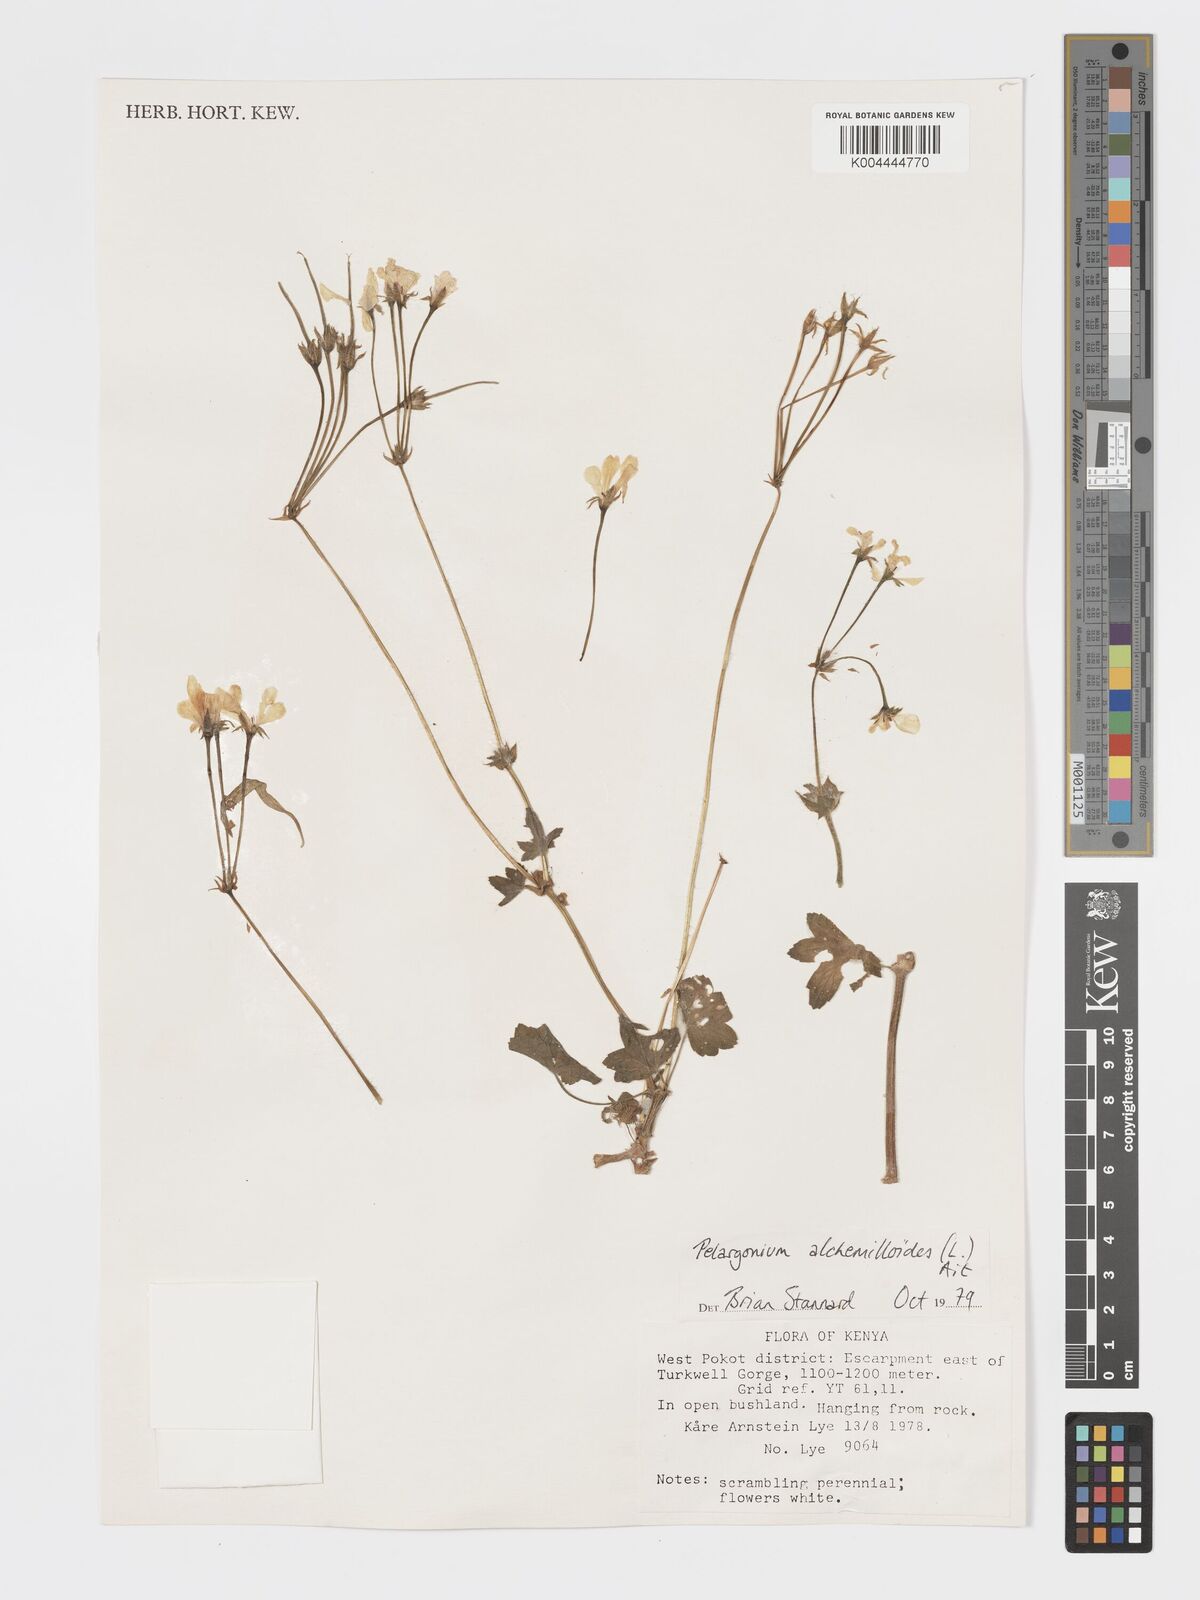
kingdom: Plantae
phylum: Tracheophyta
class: Magnoliopsida
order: Geraniales
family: Geraniaceae
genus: Pelargonium
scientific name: Pelargonium alchemilloides
